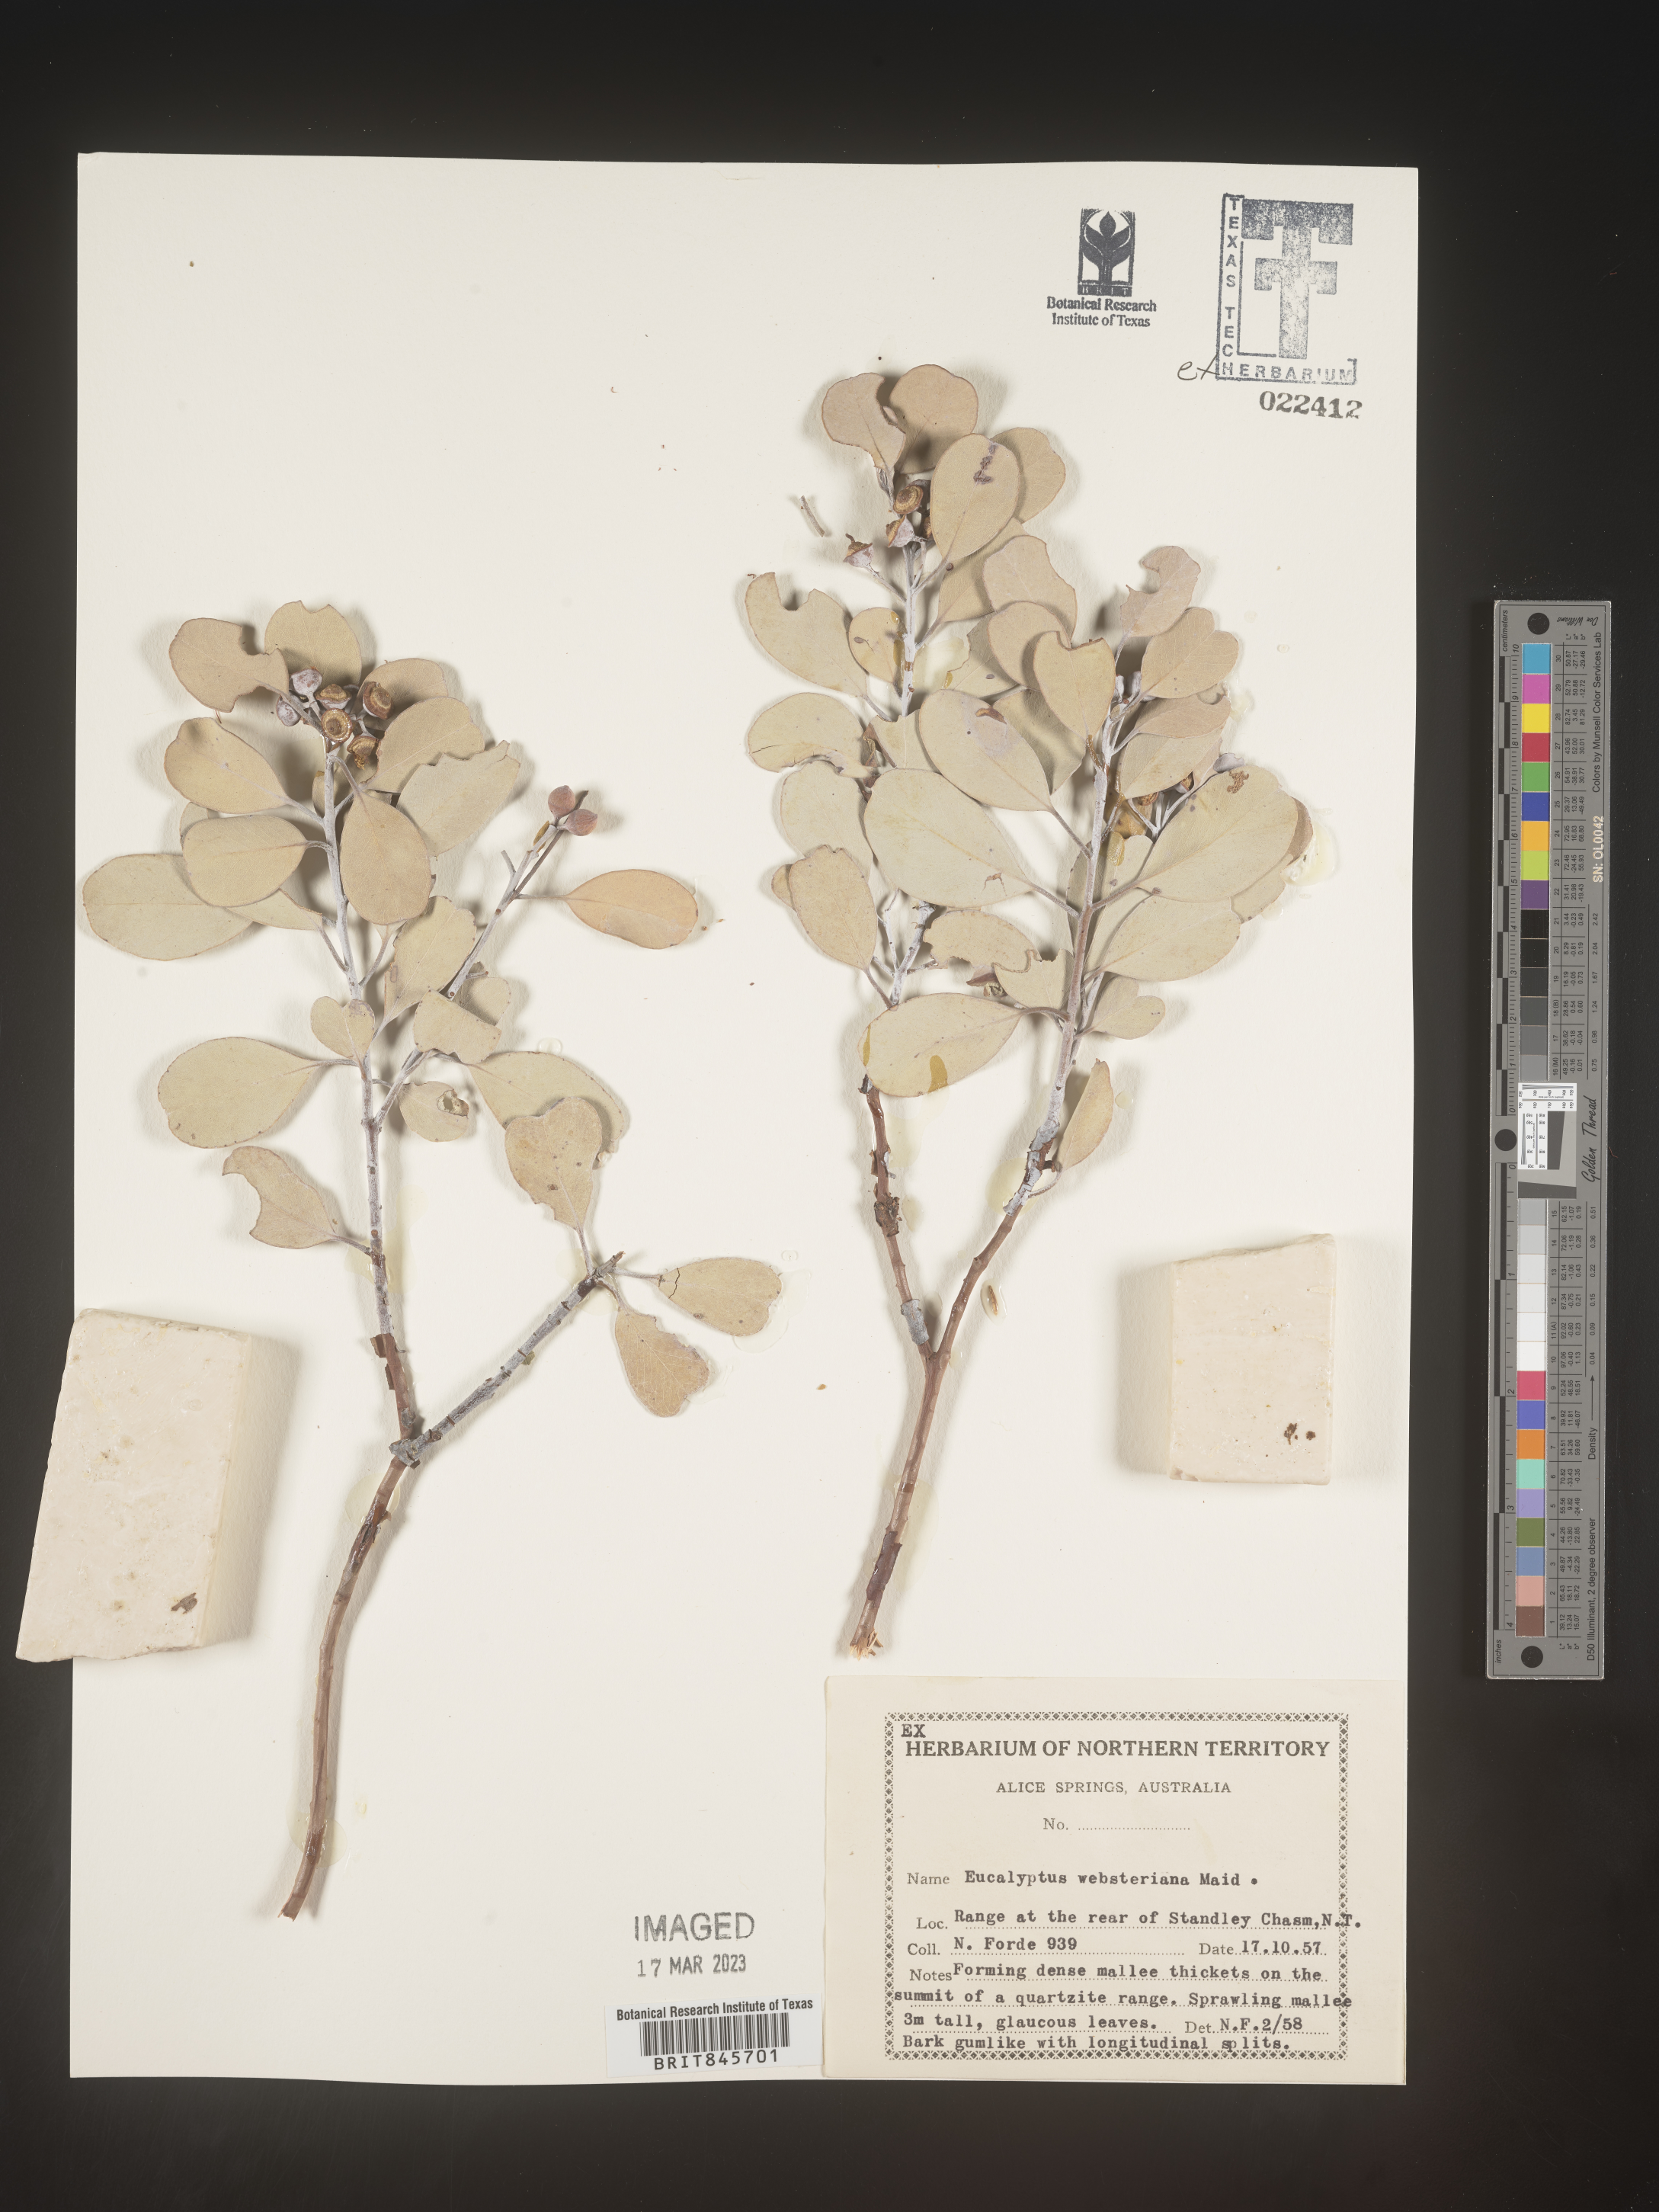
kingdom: Plantae
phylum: Tracheophyta
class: Magnoliopsida
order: Myrtales
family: Myrtaceae
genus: Eucalyptus
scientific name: Eucalyptus
